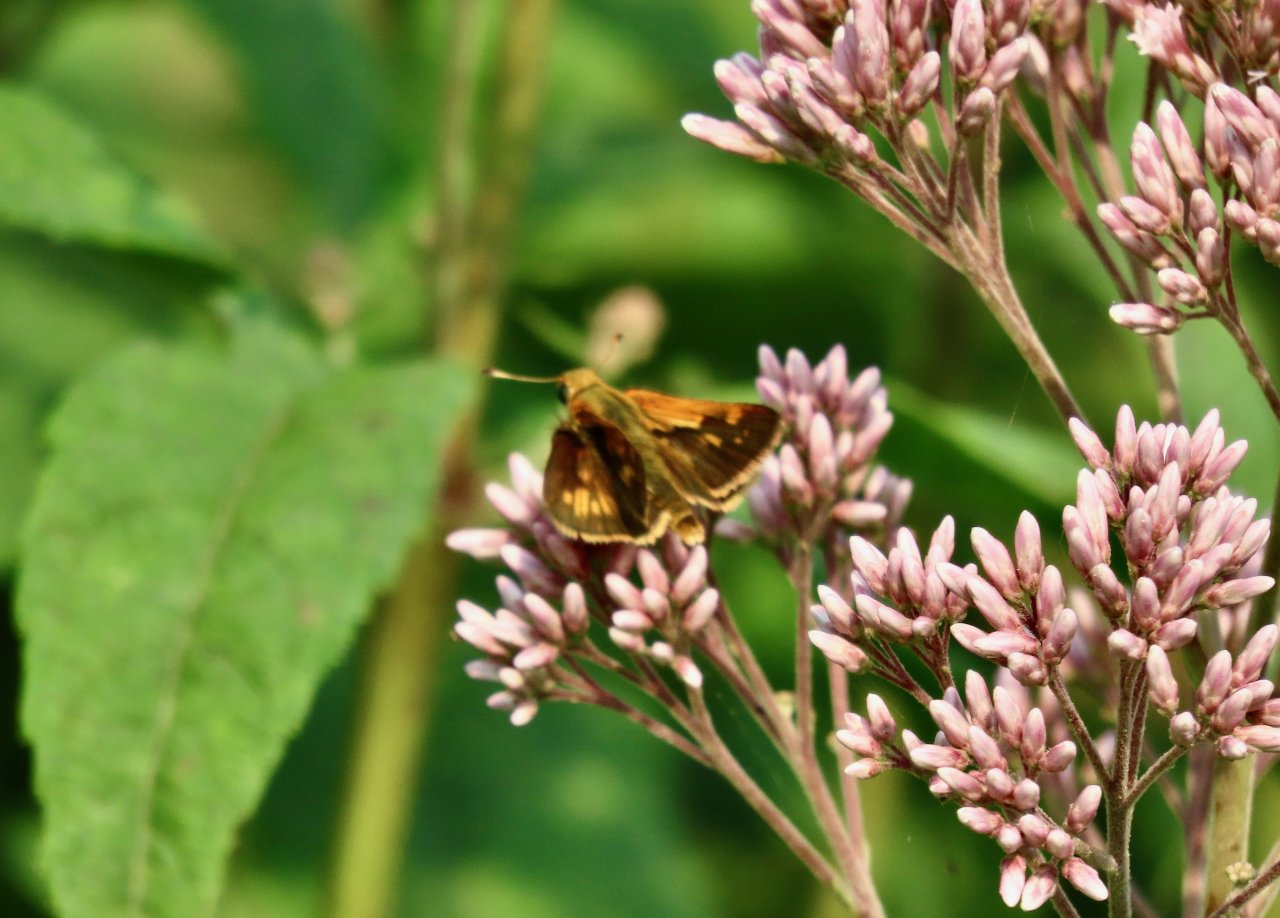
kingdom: Animalia
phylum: Arthropoda
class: Insecta
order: Lepidoptera
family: Hesperiidae
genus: Polites
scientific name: Polites coras
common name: Peck's Skipper
